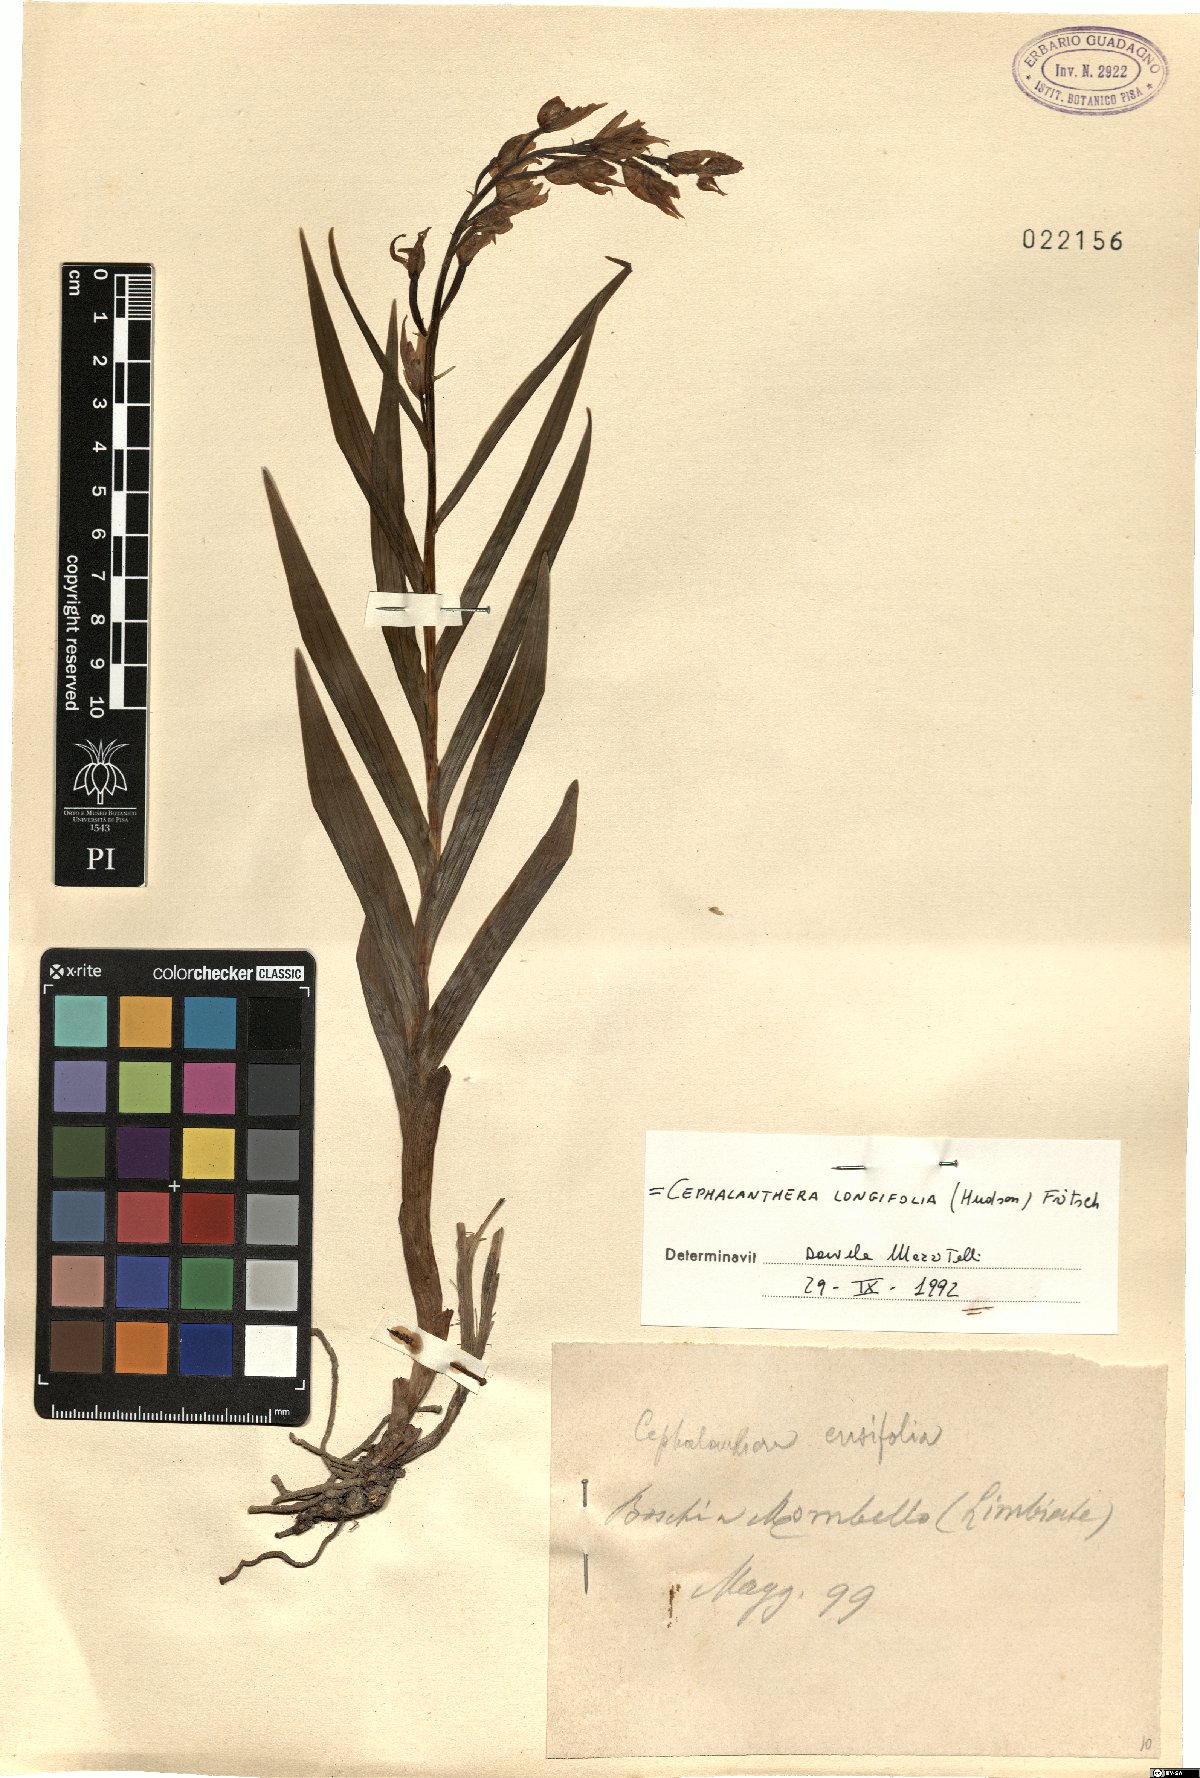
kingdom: Plantae
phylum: Tracheophyta
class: Liliopsida
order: Asparagales
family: Orchidaceae
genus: Cephalanthera
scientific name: Cephalanthera longifolia
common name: Narrow-leaved helleborine
